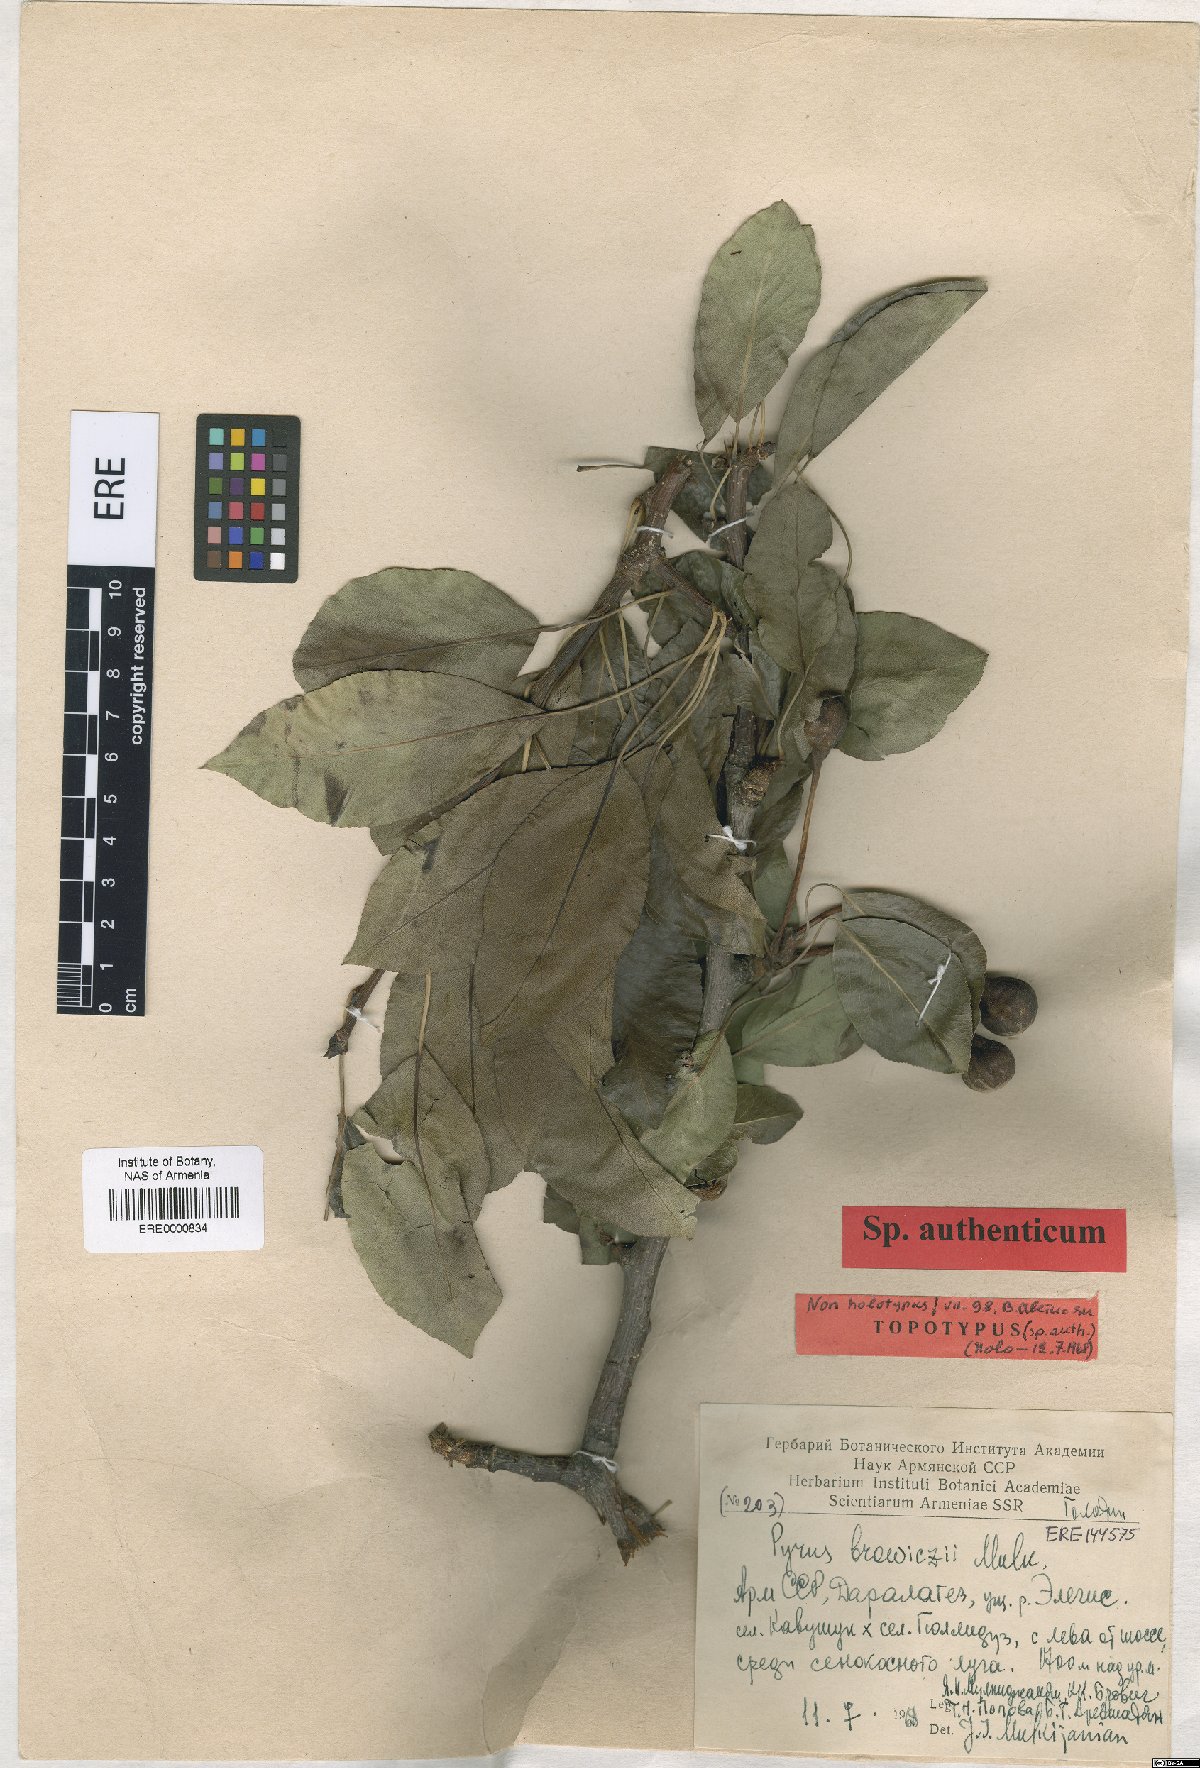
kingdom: Plantae
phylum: Tracheophyta
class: Magnoliopsida
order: Rosales
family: Rosaceae
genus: Pyrus
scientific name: Pyrus browiczii
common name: Brovich's pear
